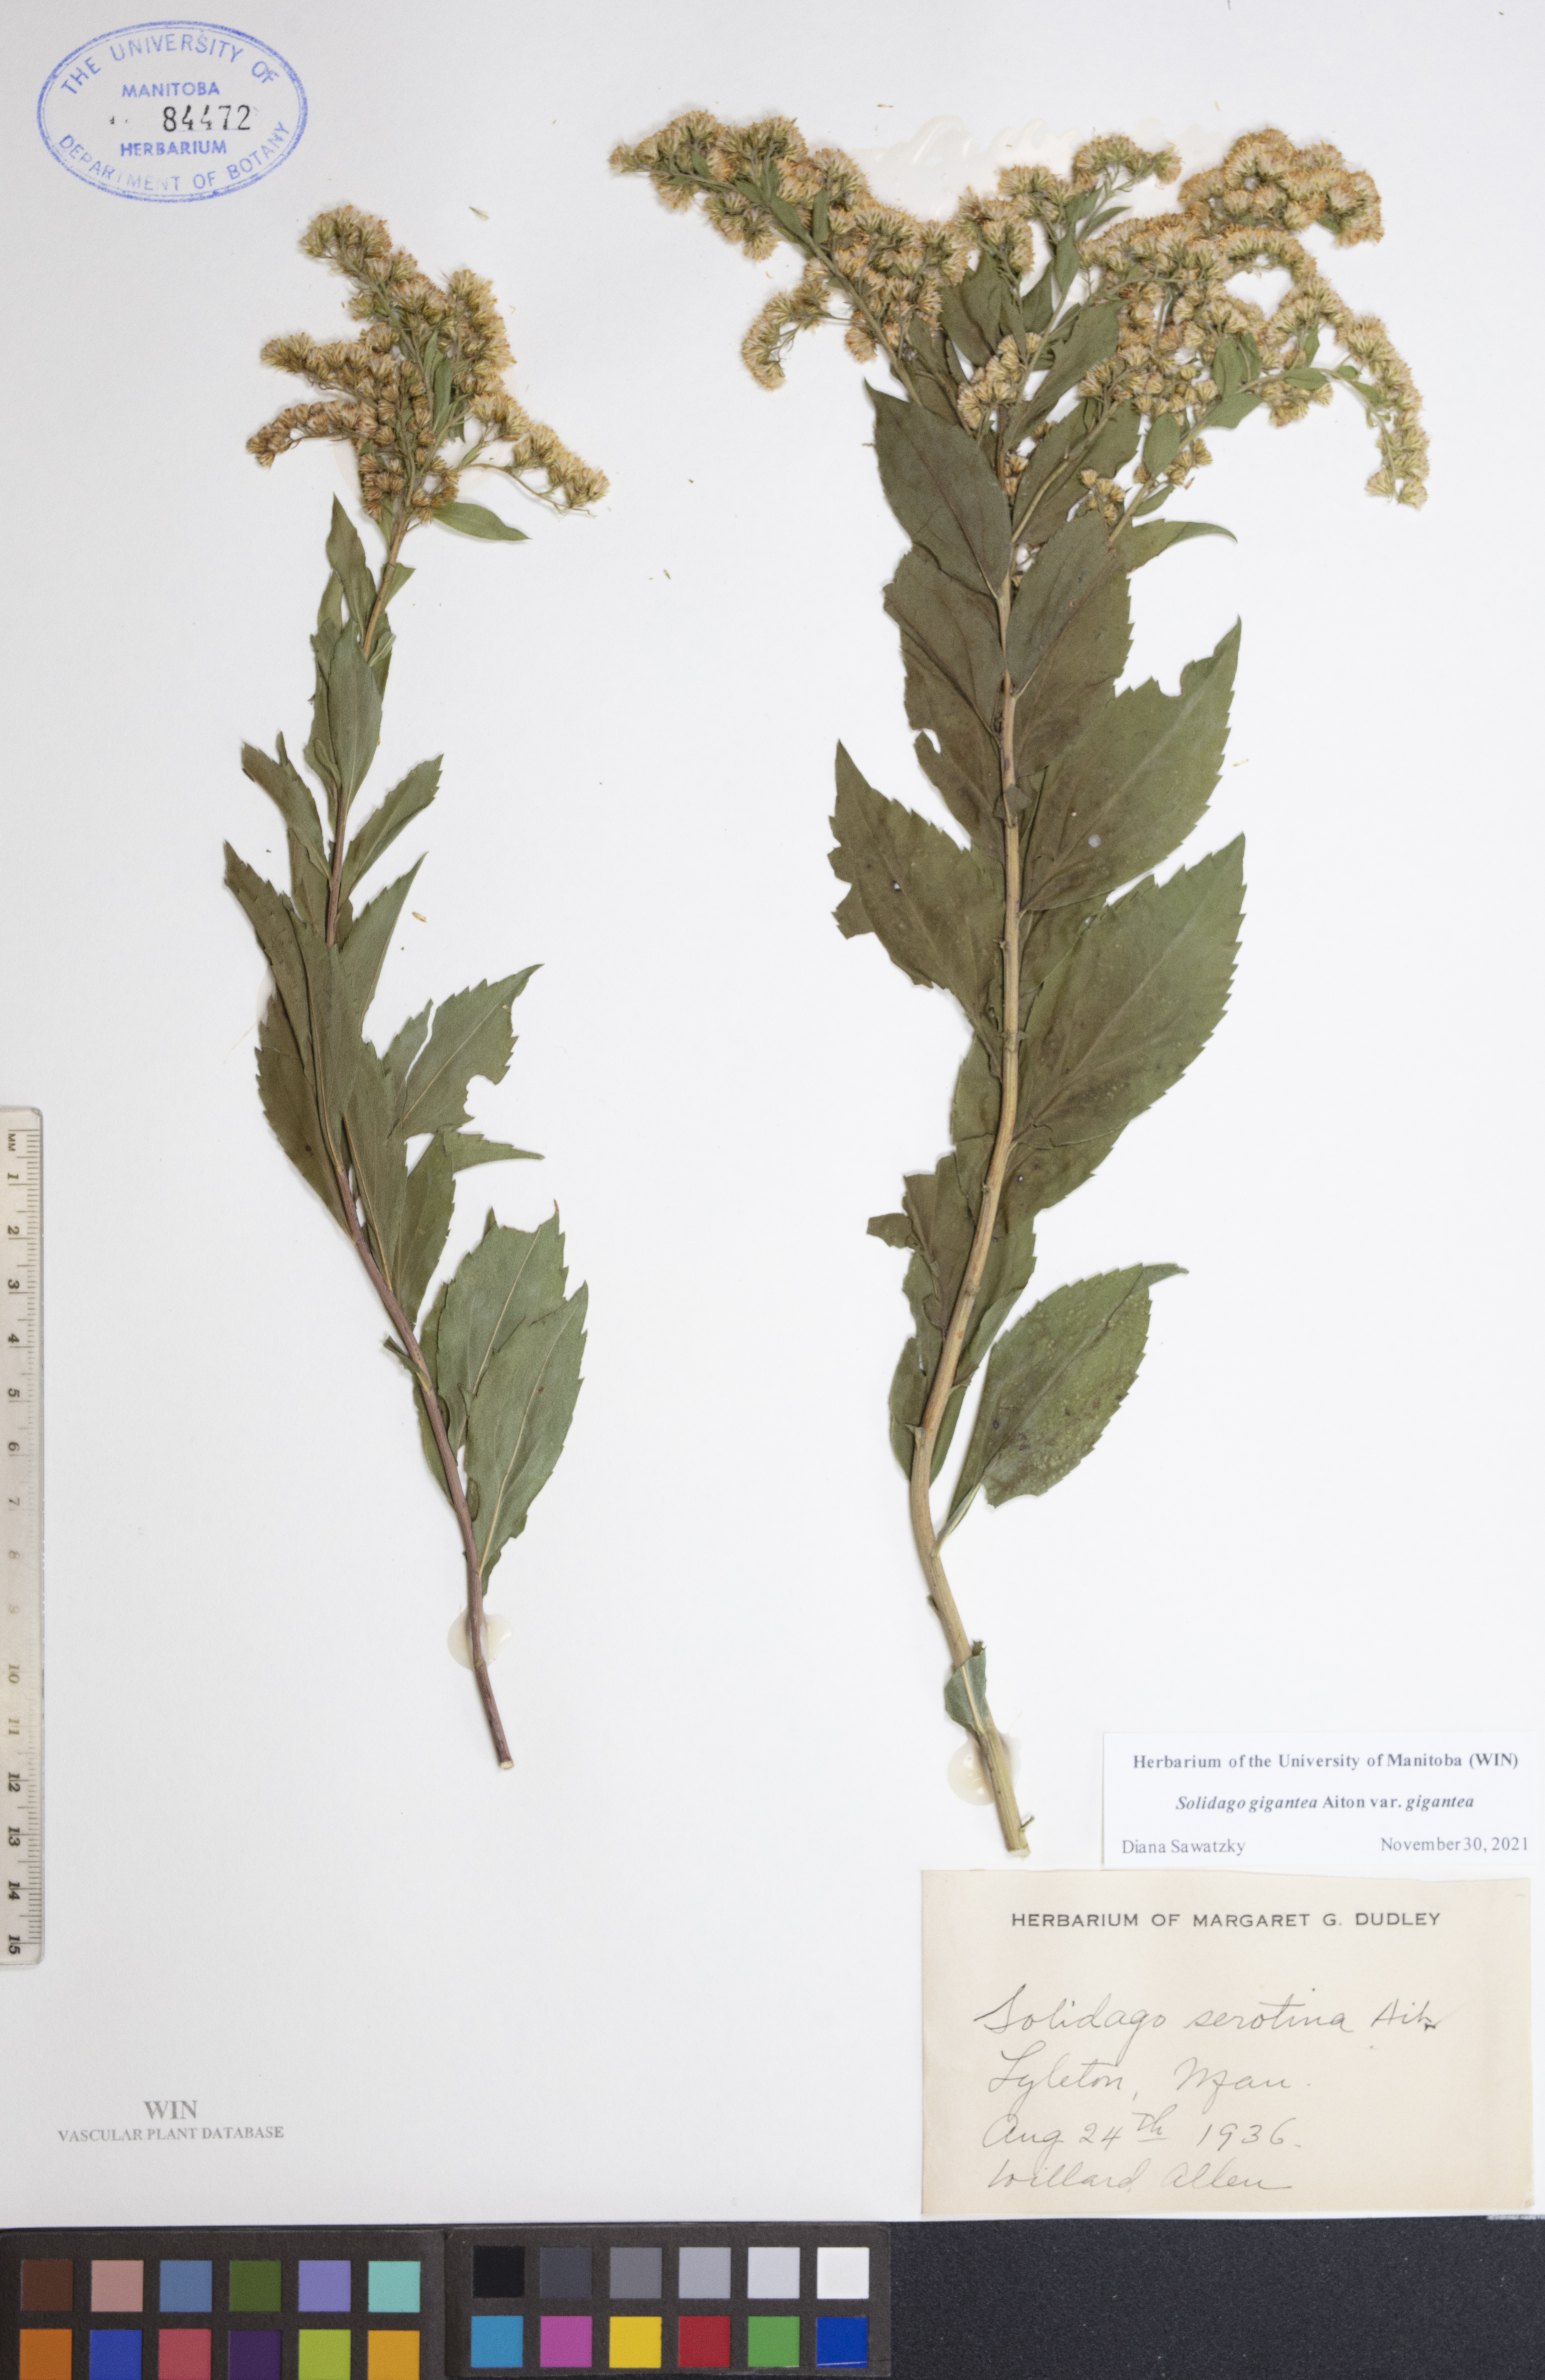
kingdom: Plantae
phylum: Tracheophyta
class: Magnoliopsida
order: Asterales
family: Asteraceae
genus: Solidago
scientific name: Solidago gigantea
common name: Giant goldenrod
